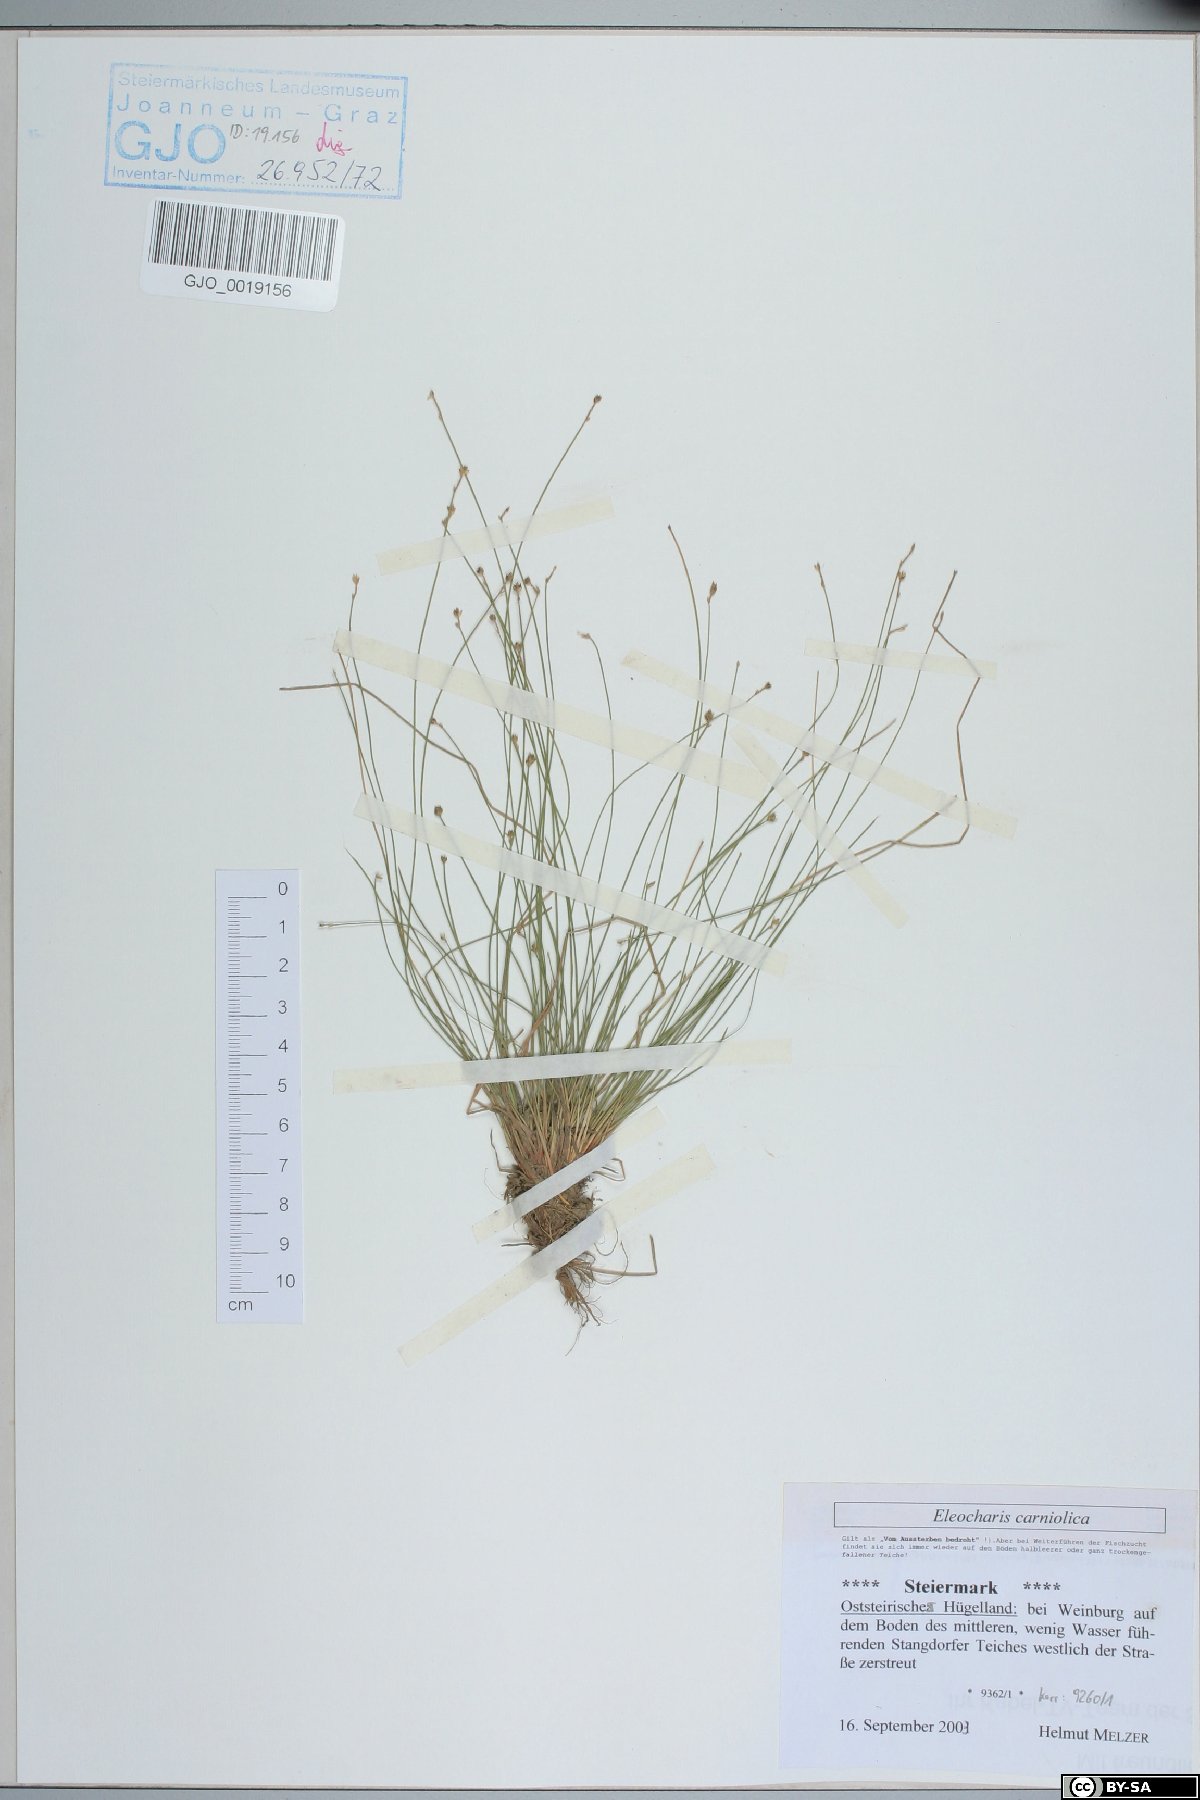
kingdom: Plantae
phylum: Tracheophyta
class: Liliopsida
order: Poales
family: Cyperaceae
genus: Eleocharis
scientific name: Eleocharis carniolica
